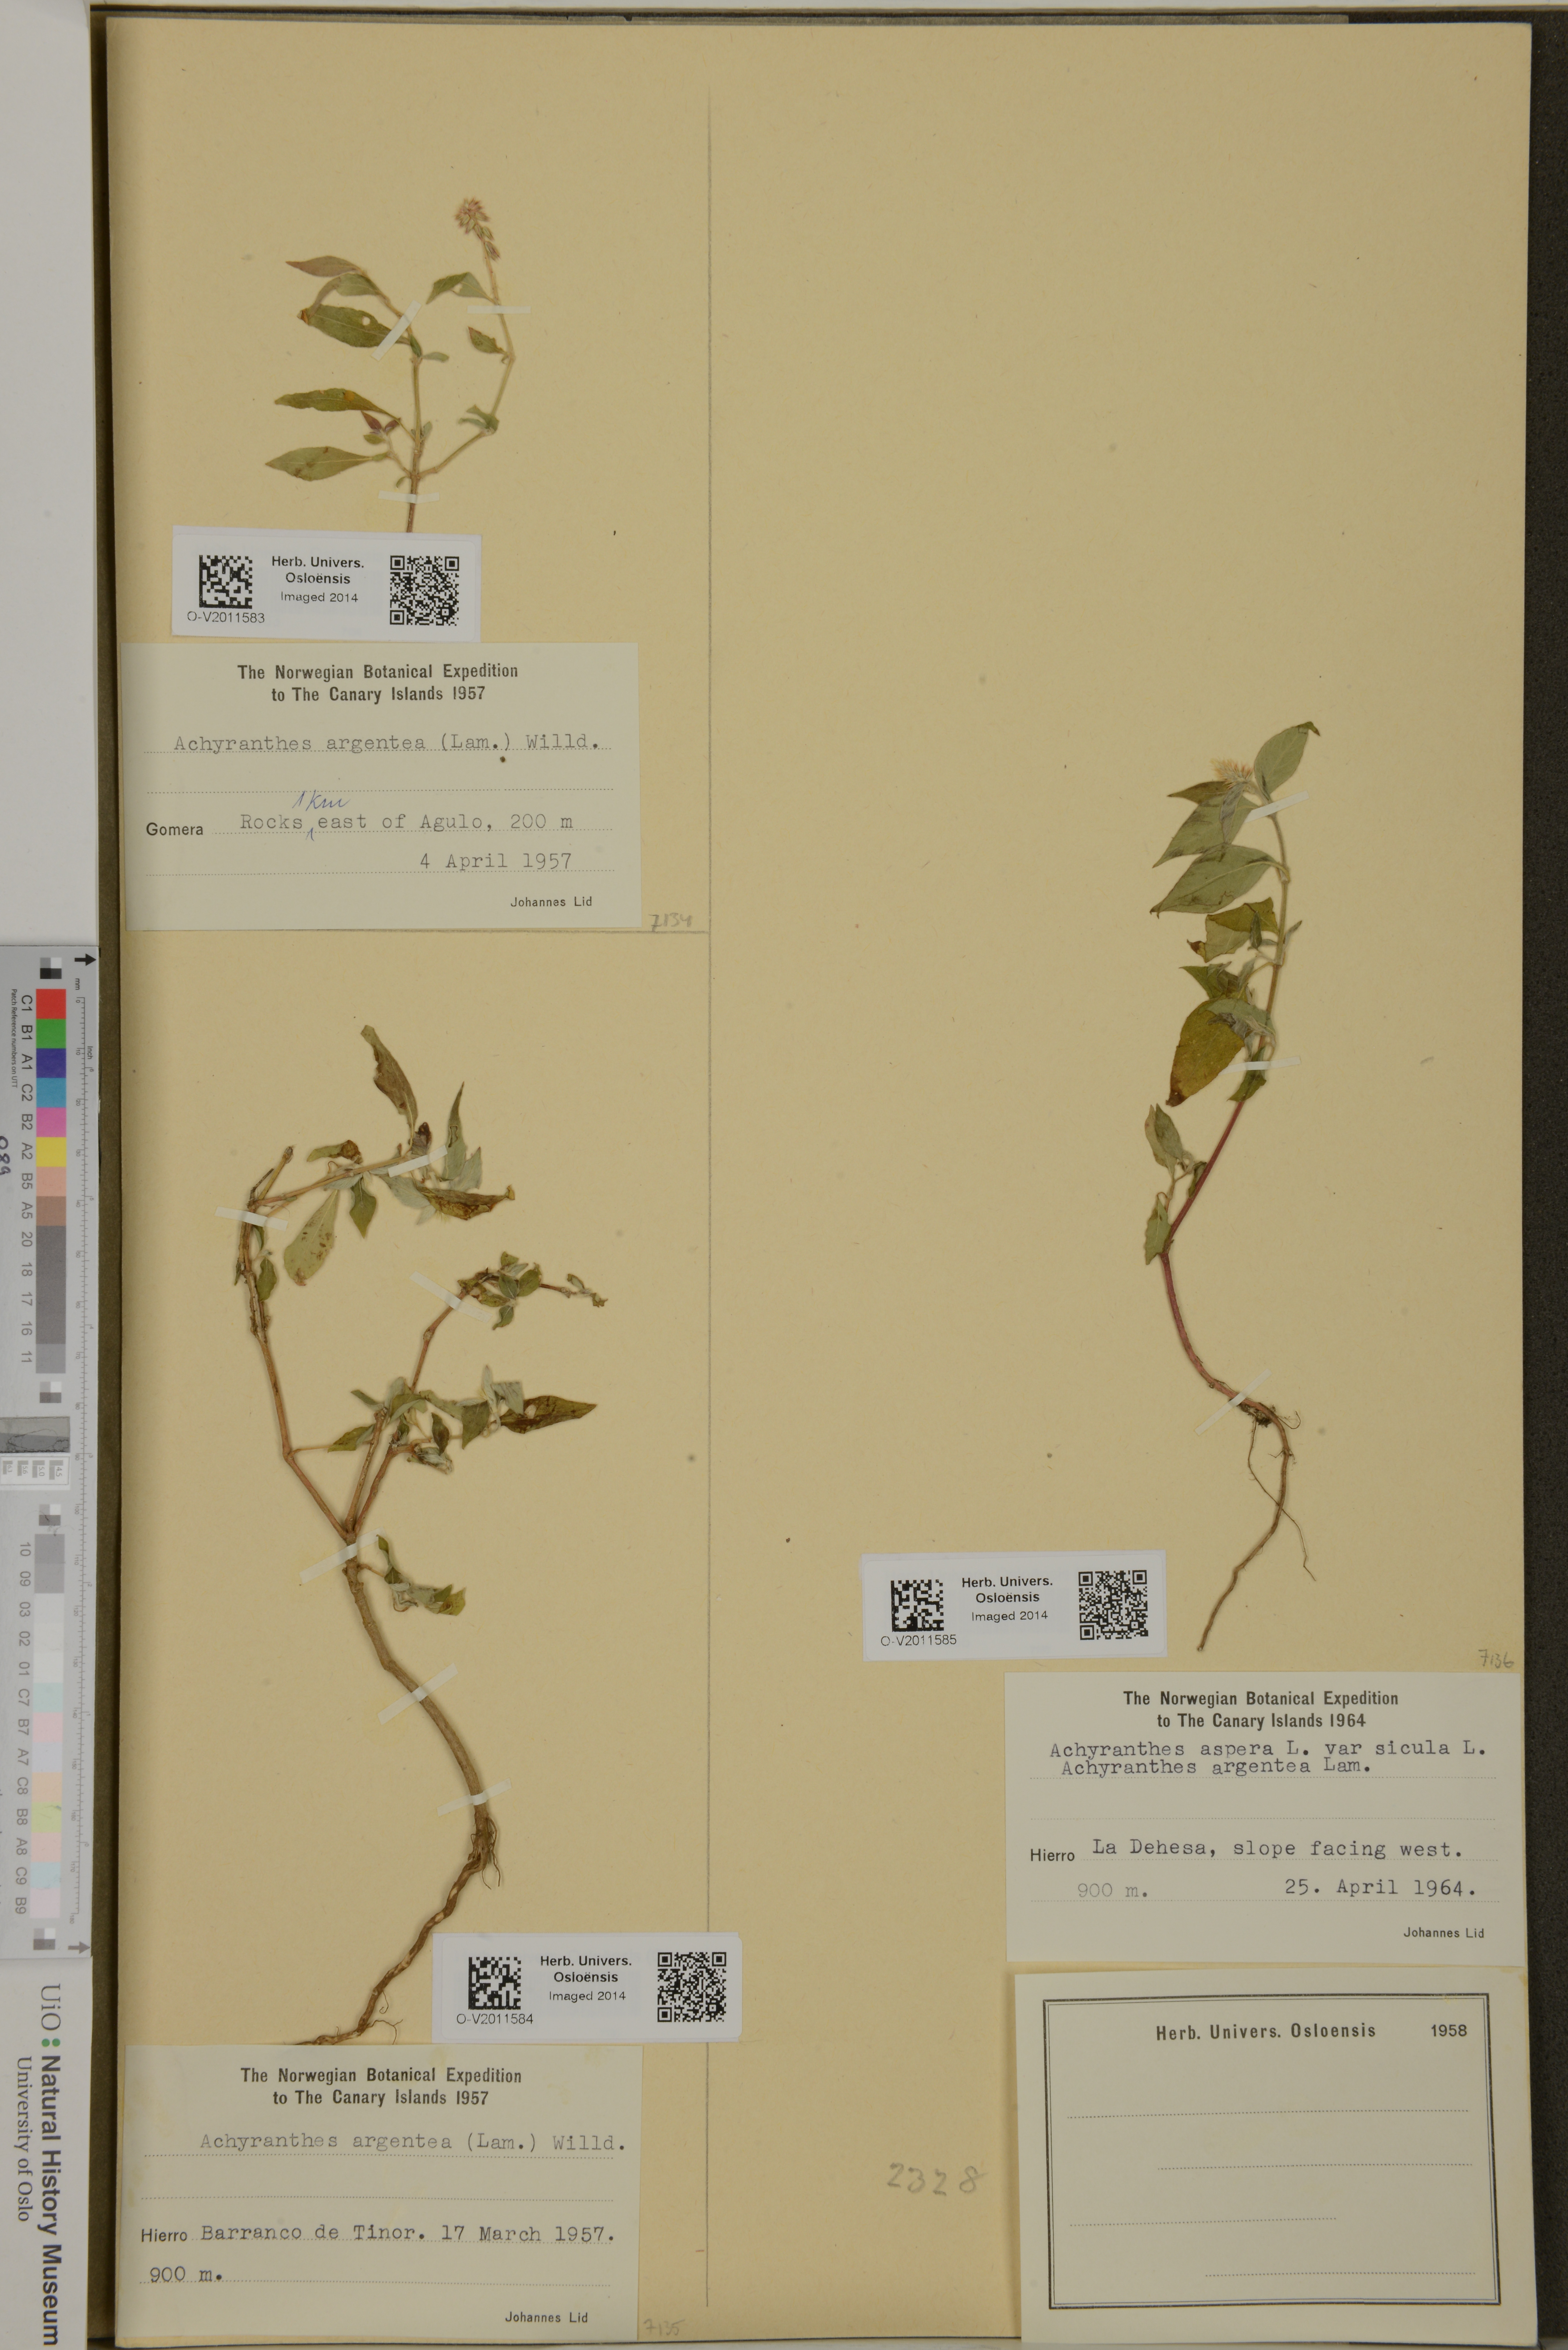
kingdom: Plantae
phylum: Tracheophyta
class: Magnoliopsida
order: Caryophyllales
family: Amaranthaceae
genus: Achyranthes
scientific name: Achyranthes sicula
